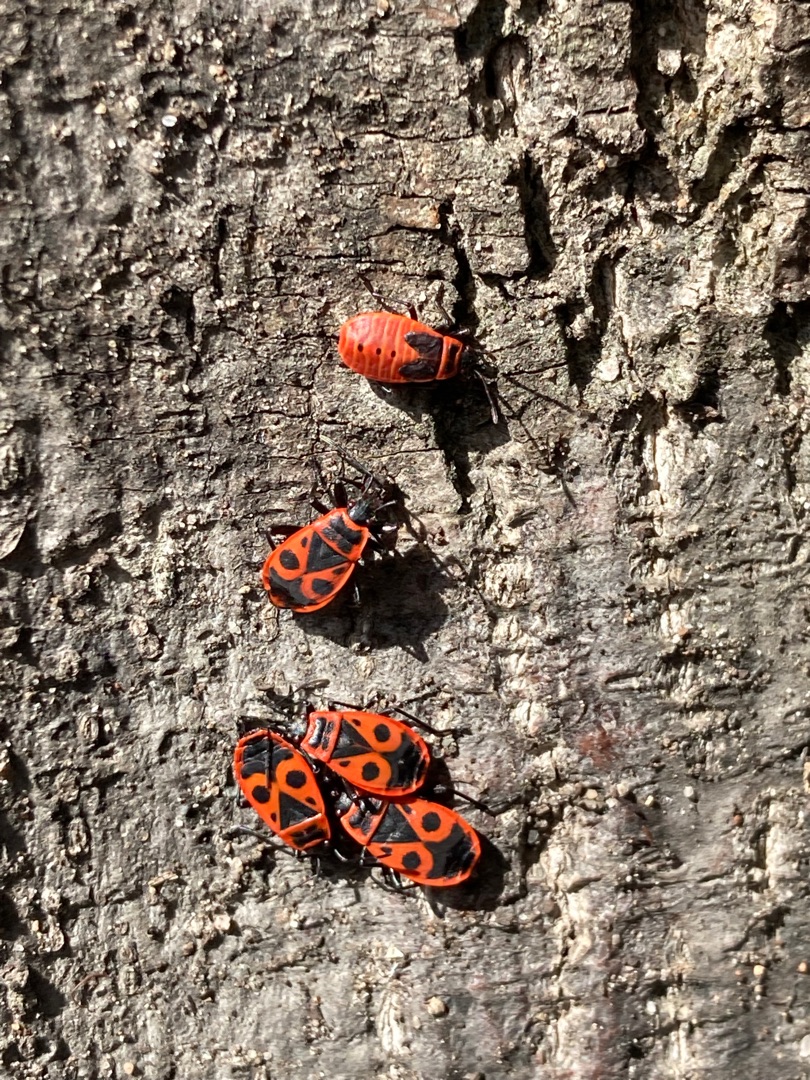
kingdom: Animalia
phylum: Arthropoda
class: Insecta
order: Hemiptera
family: Pyrrhocoridae
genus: Pyrrhocoris
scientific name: Pyrrhocoris apterus
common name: Ildtæge
